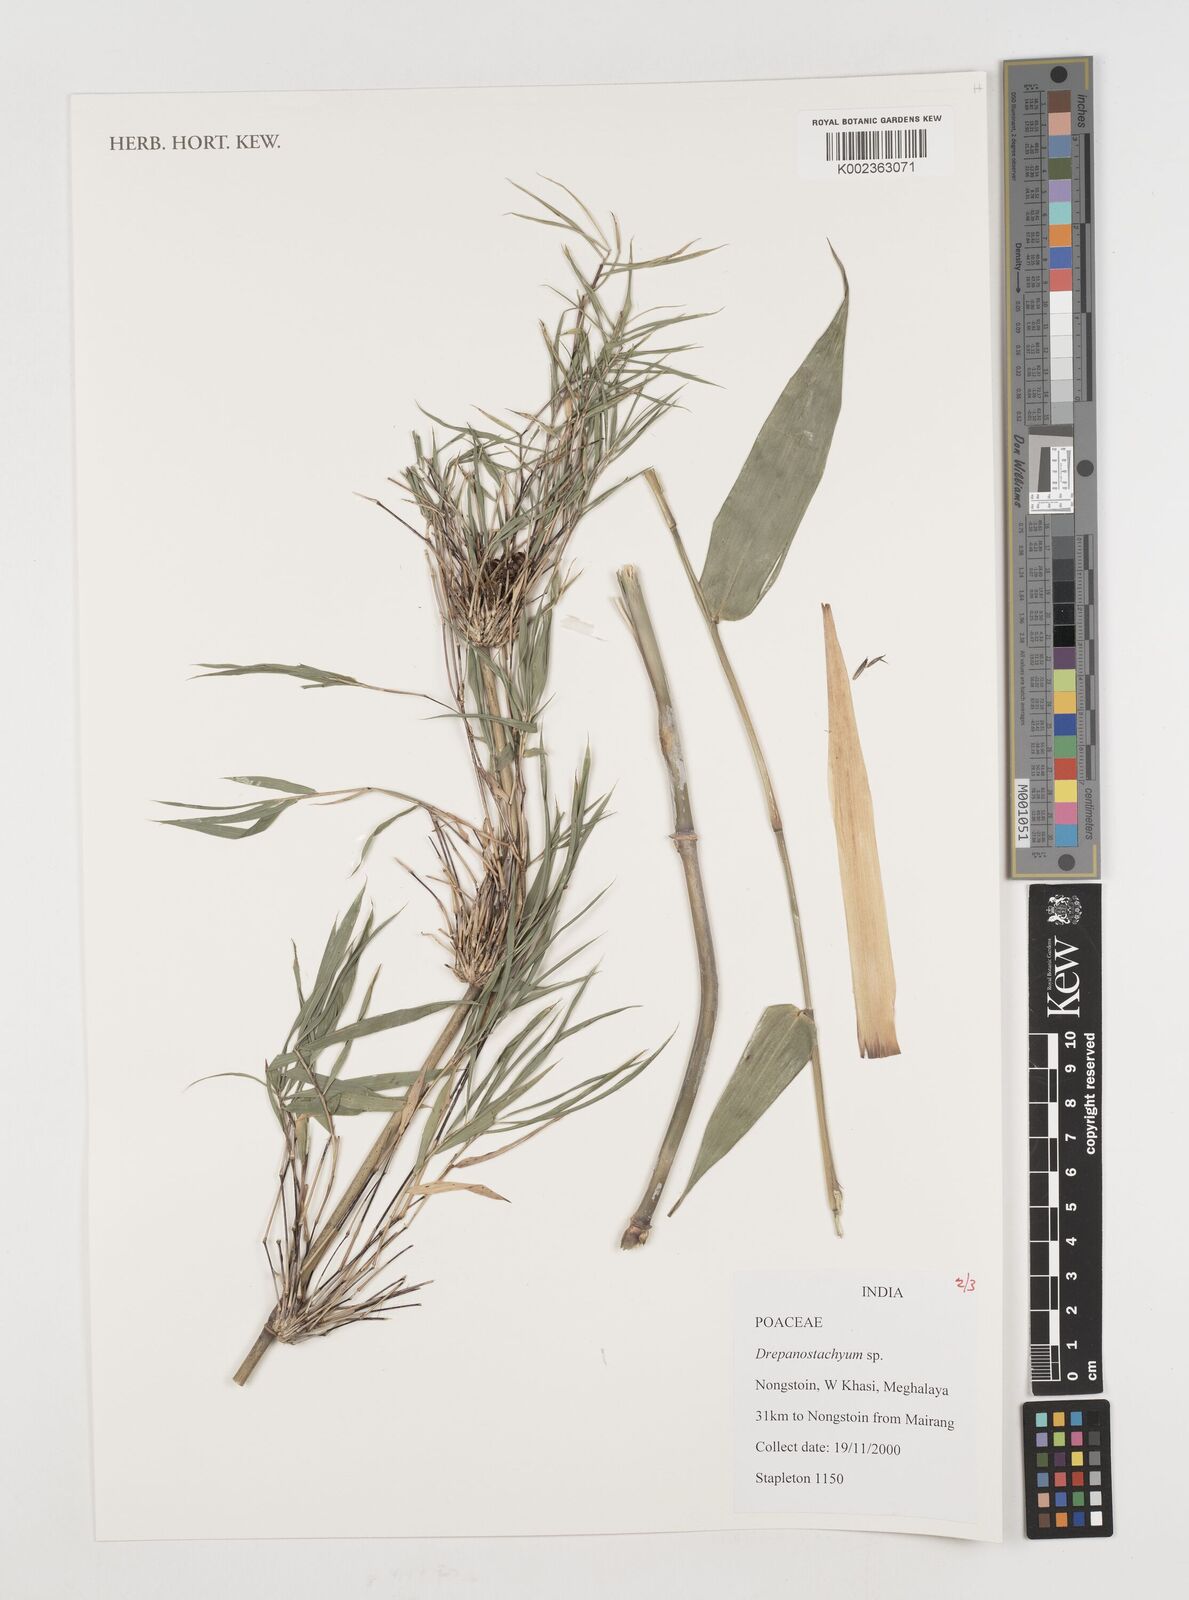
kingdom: Plantae
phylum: Tracheophyta
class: Liliopsida
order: Poales
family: Poaceae
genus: Drepanostachyum
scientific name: Drepanostachyum
